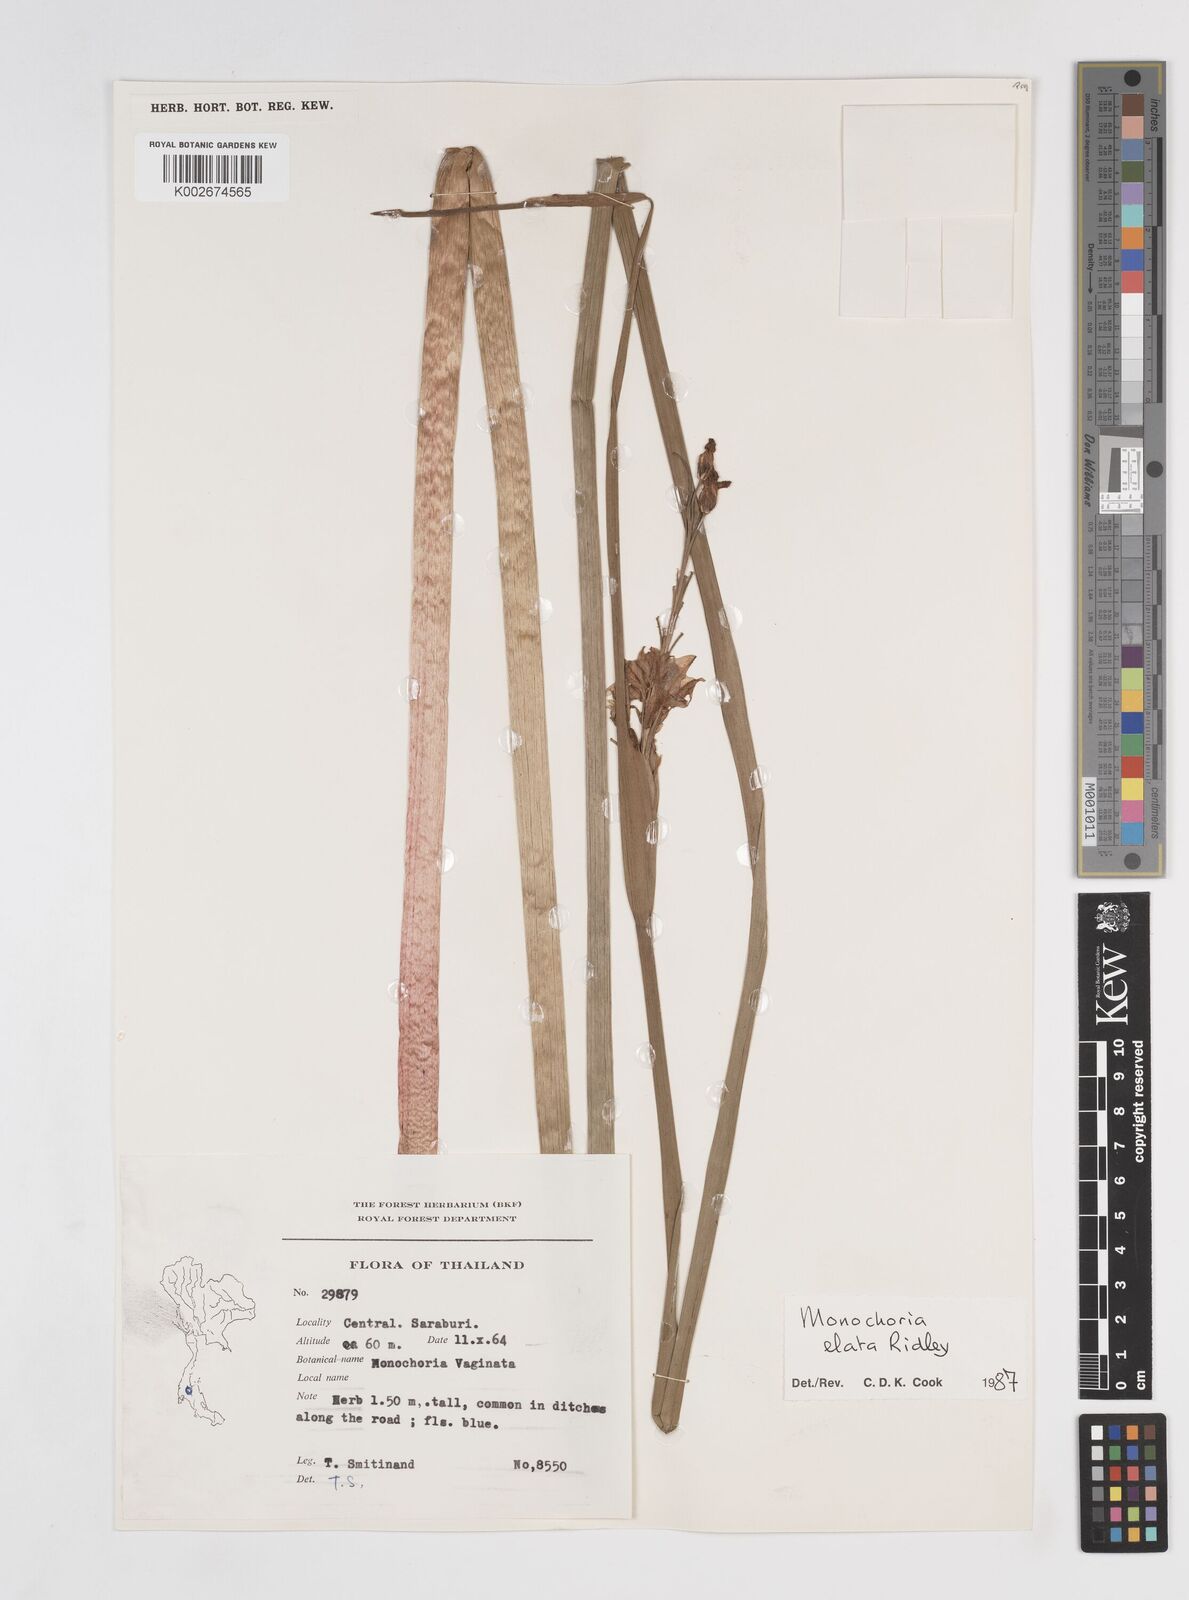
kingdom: Plantae
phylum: Tracheophyta
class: Liliopsida
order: Commelinales
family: Pontederiaceae
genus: Pontederia
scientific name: Pontederia elata
